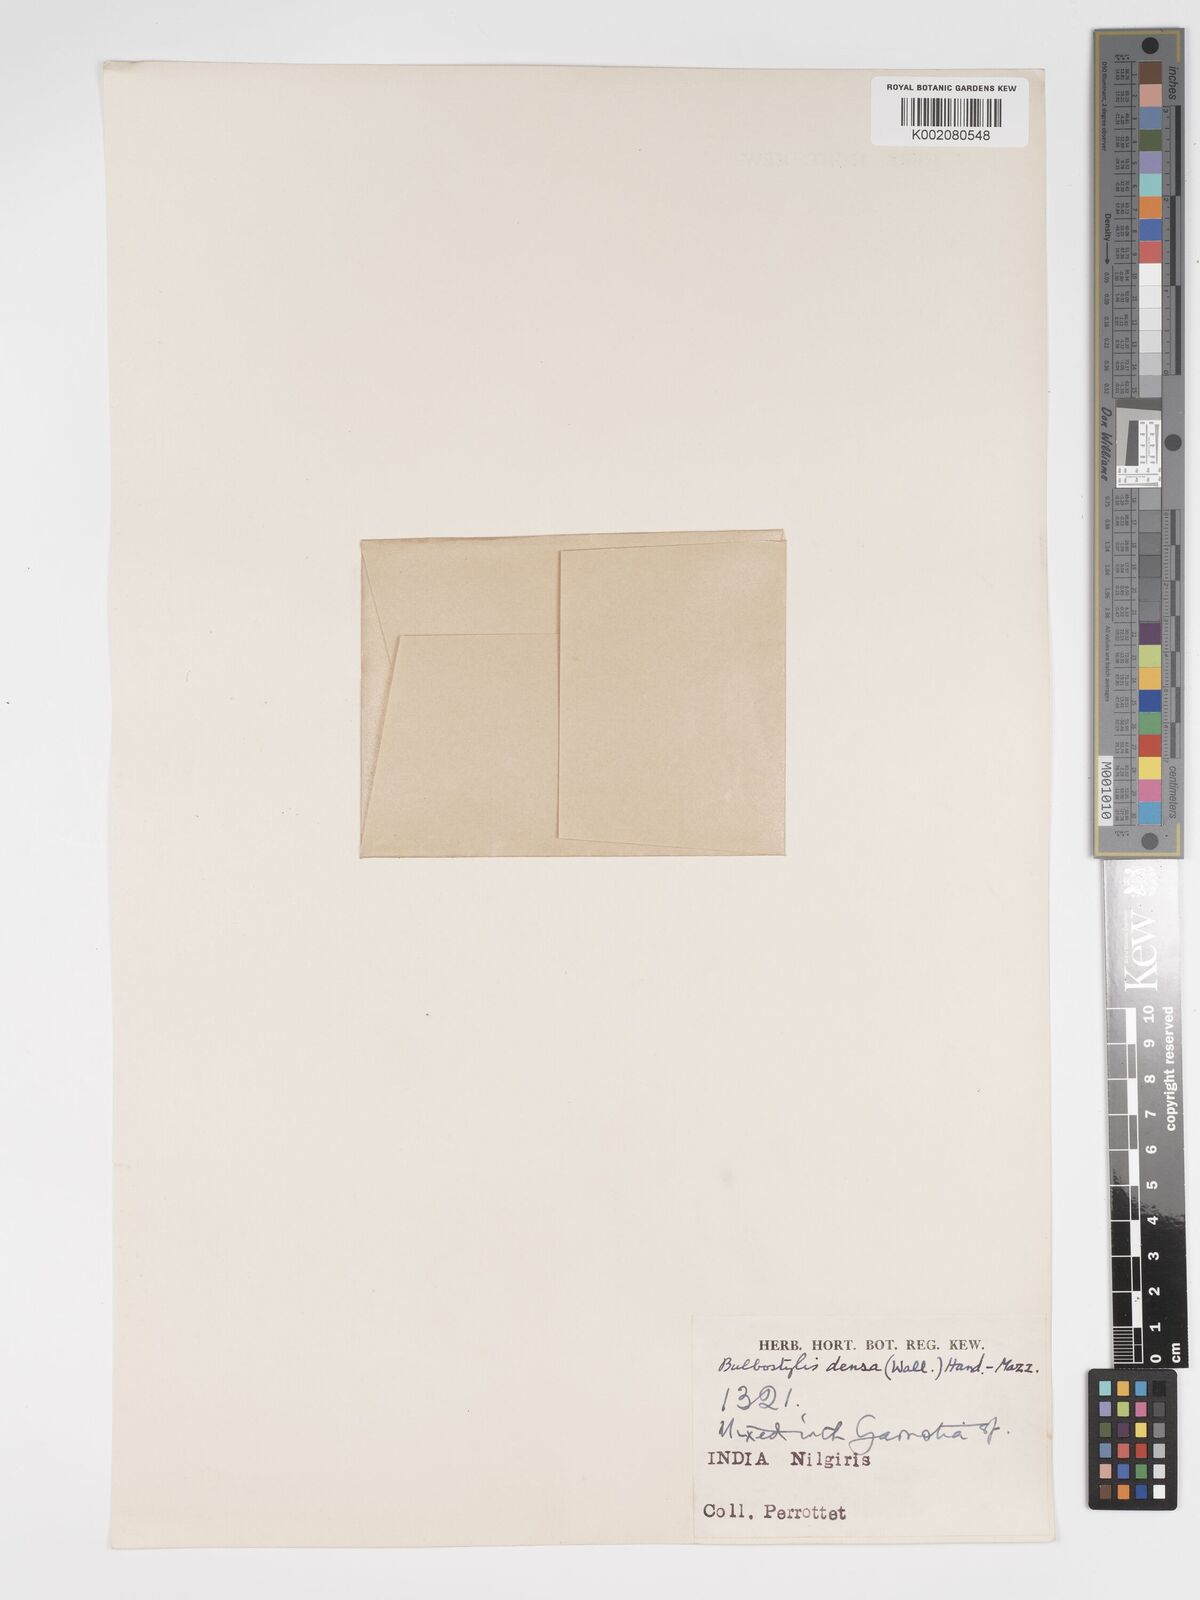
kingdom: Plantae
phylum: Tracheophyta
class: Liliopsida
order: Poales
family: Cyperaceae
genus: Bulbostylis
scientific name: Bulbostylis densa
